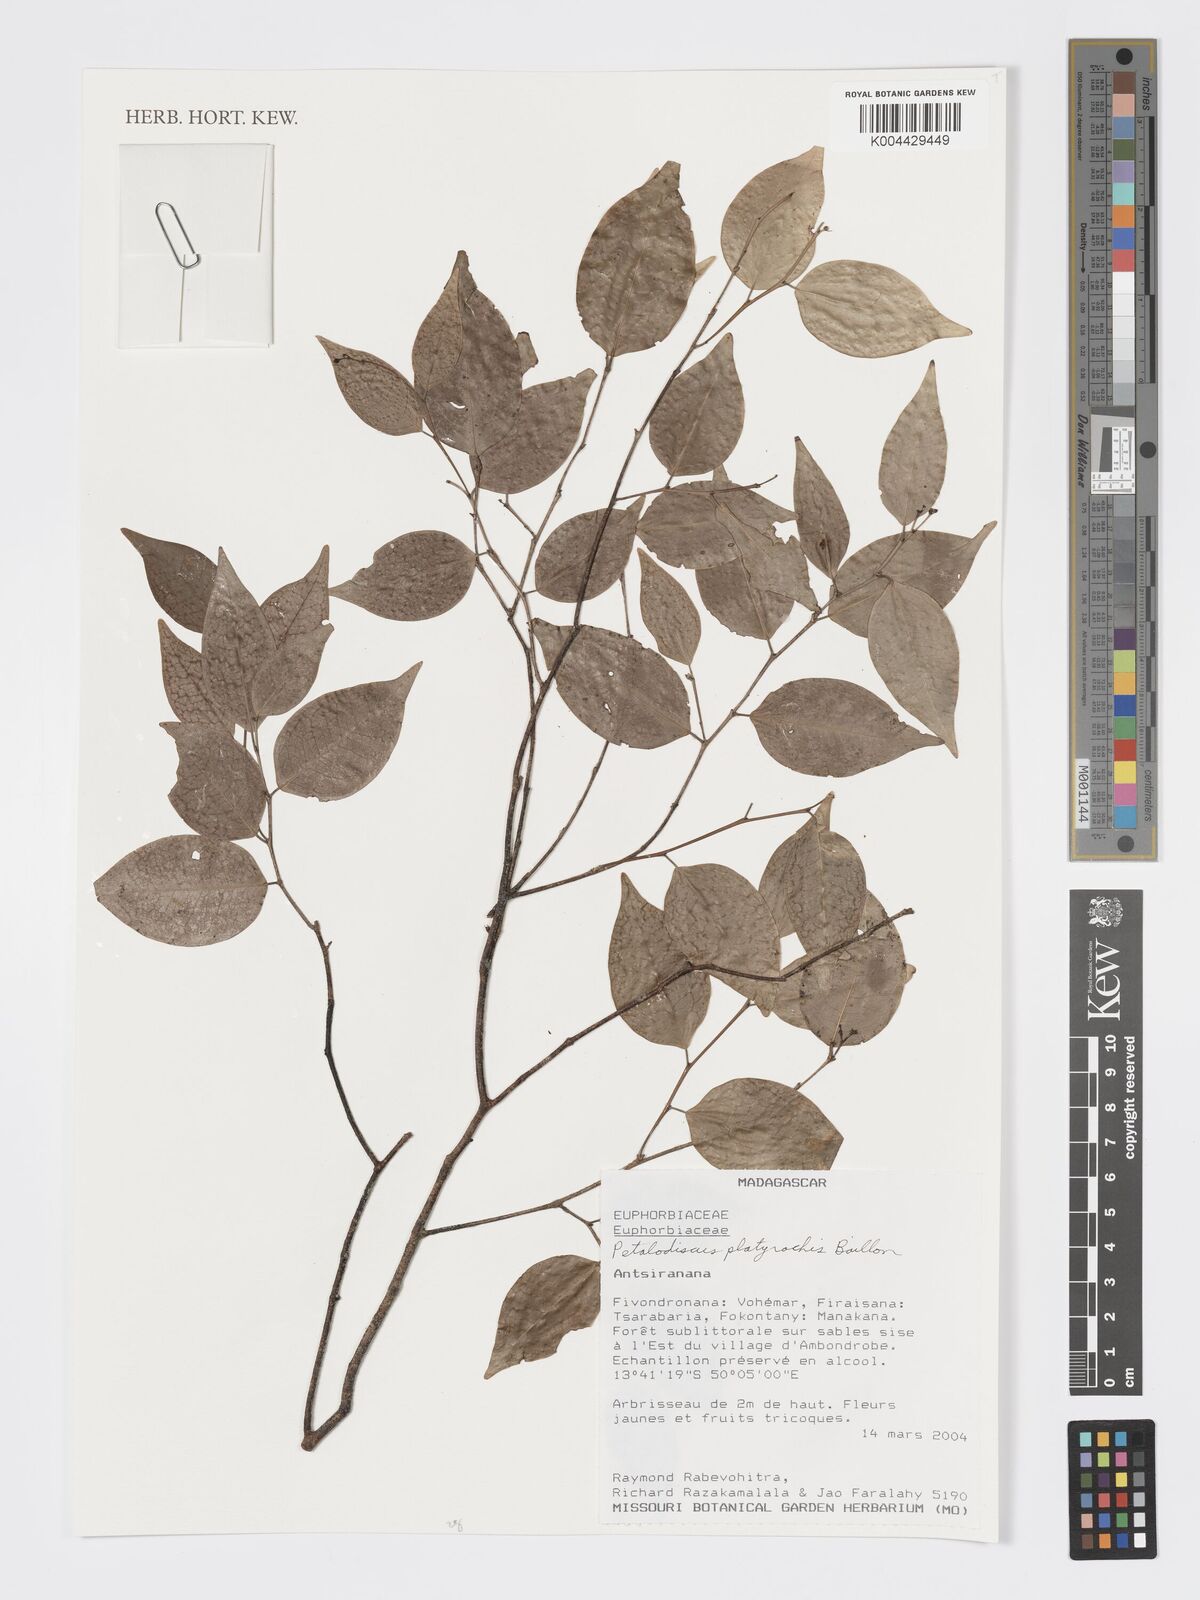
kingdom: Plantae
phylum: Tracheophyta
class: Magnoliopsida
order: Malpighiales
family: Phyllanthaceae
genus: Wielandia
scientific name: Wielandia platyrachis
